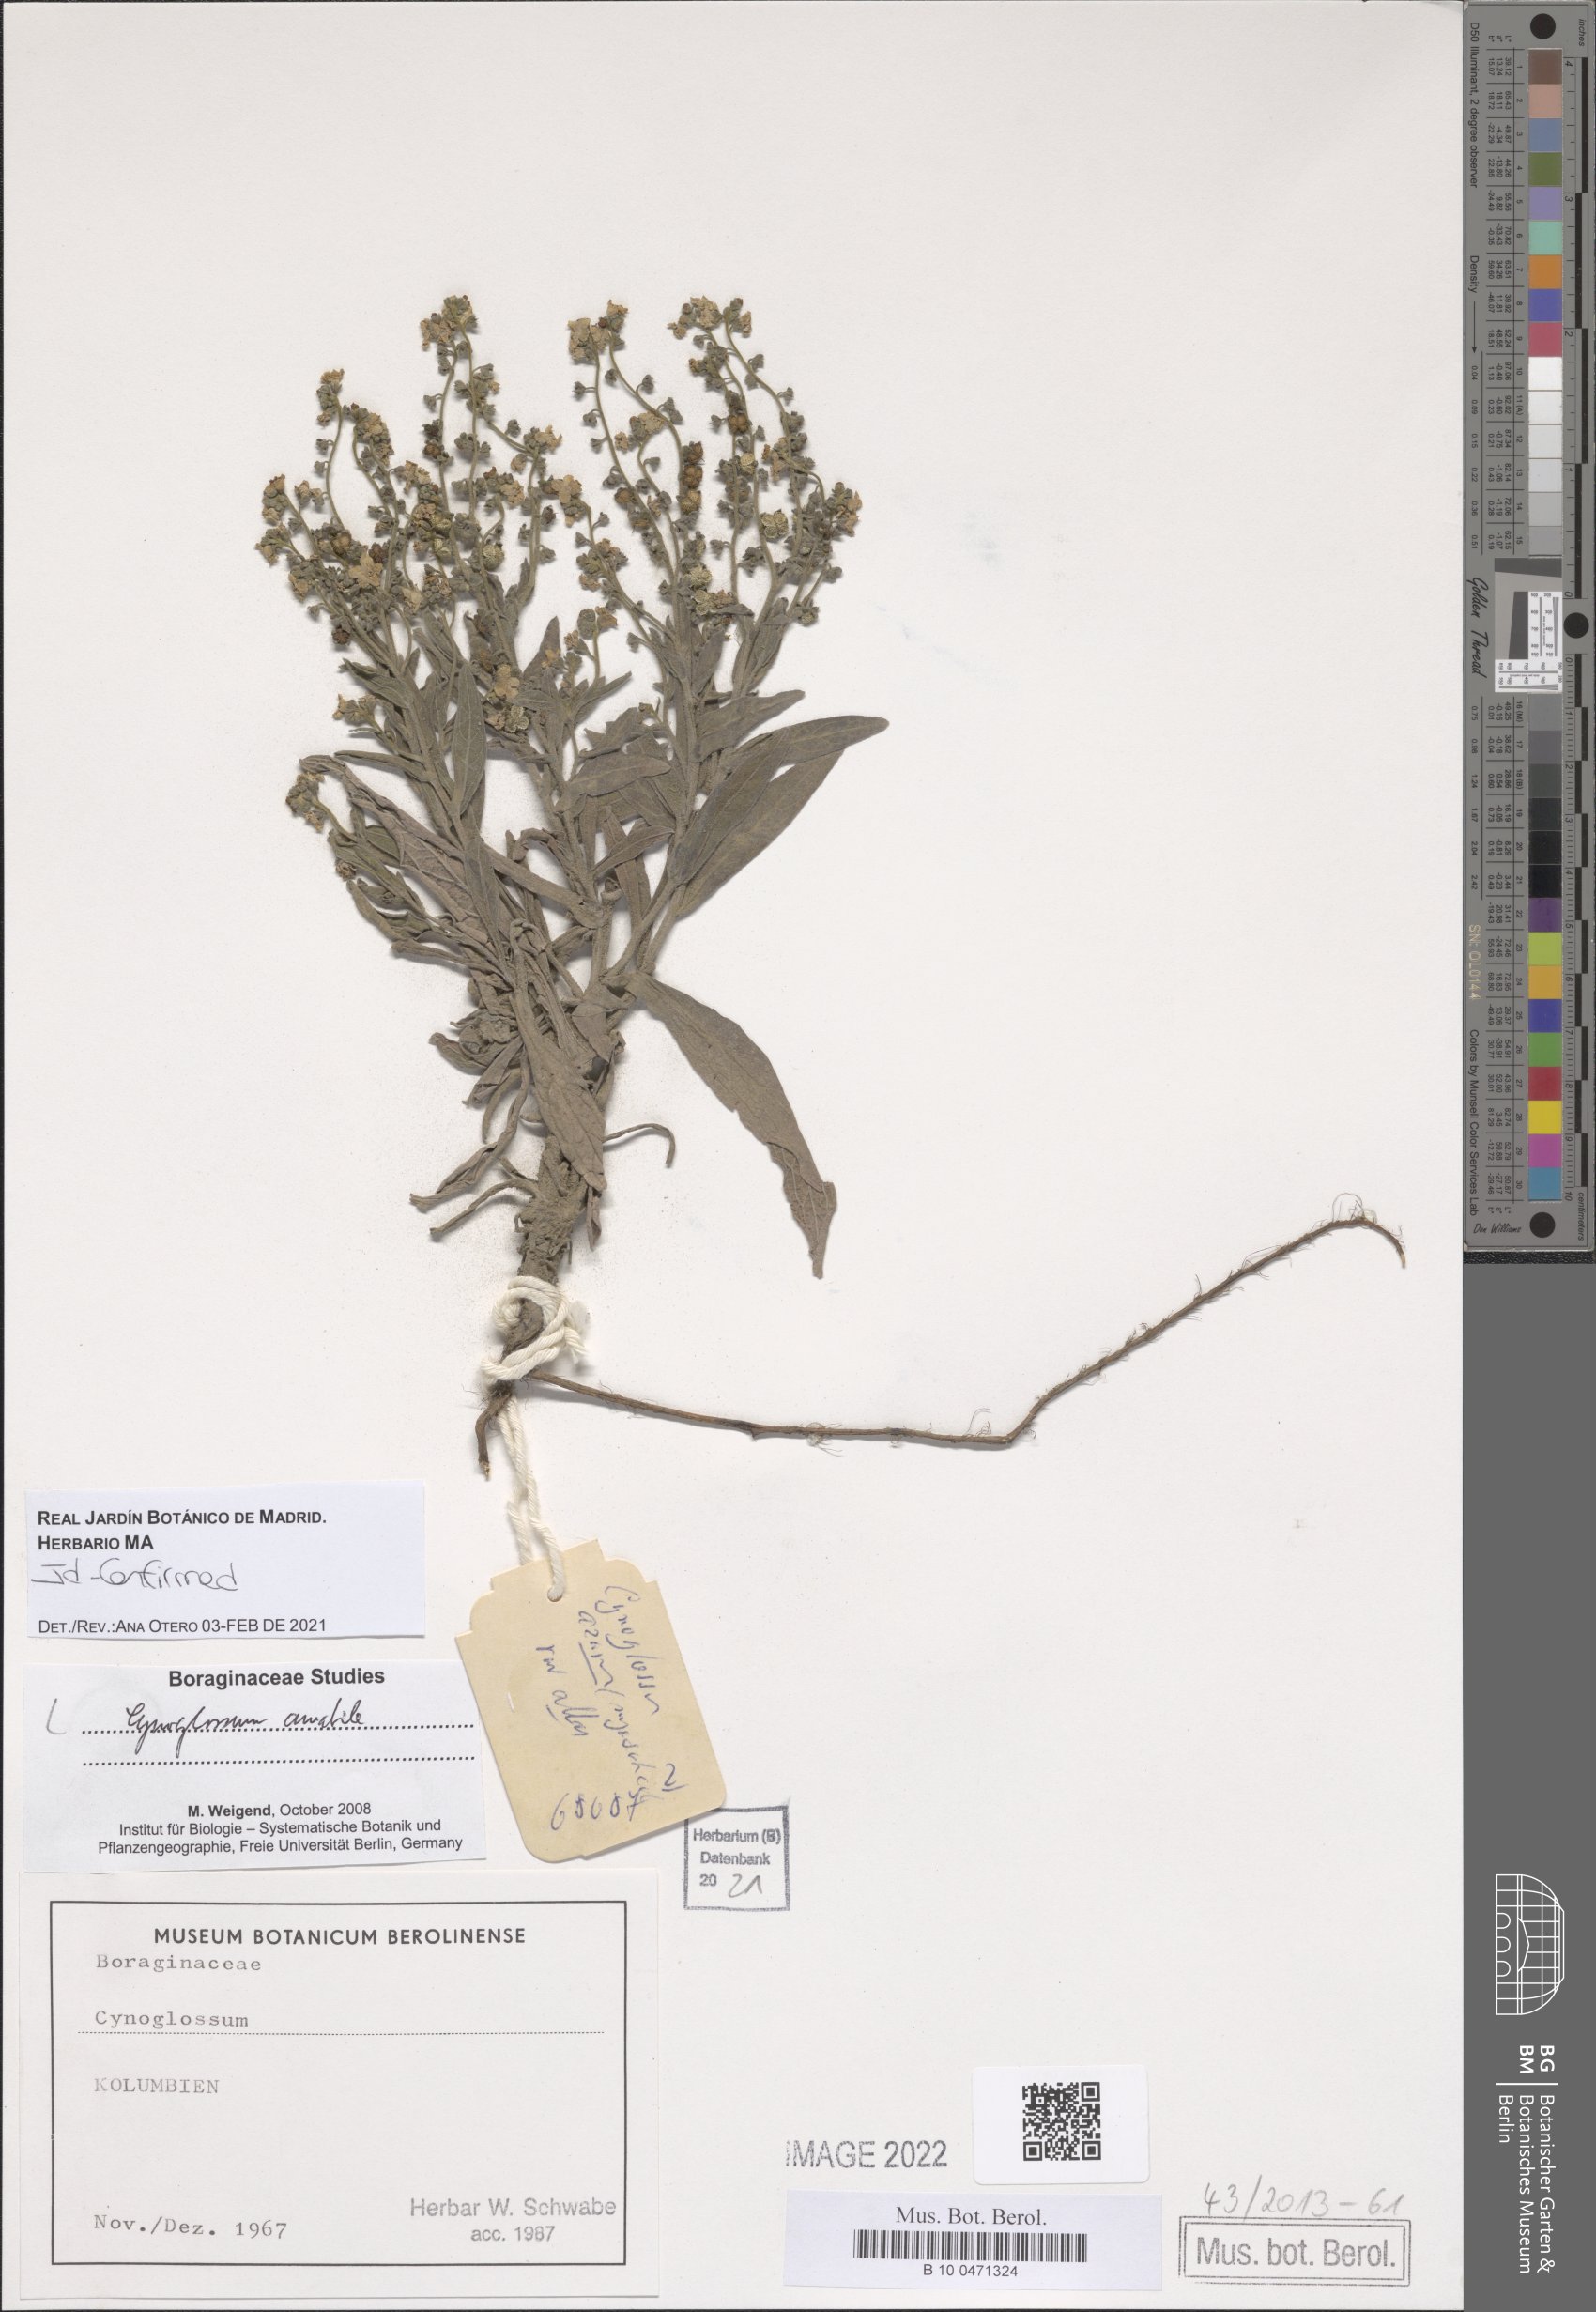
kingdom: Plantae
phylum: Tracheophyta
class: Magnoliopsida
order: Boraginales
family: Boraginaceae
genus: Cynoglossum
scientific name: Cynoglossum amabile
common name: Chinese hound's tongue
